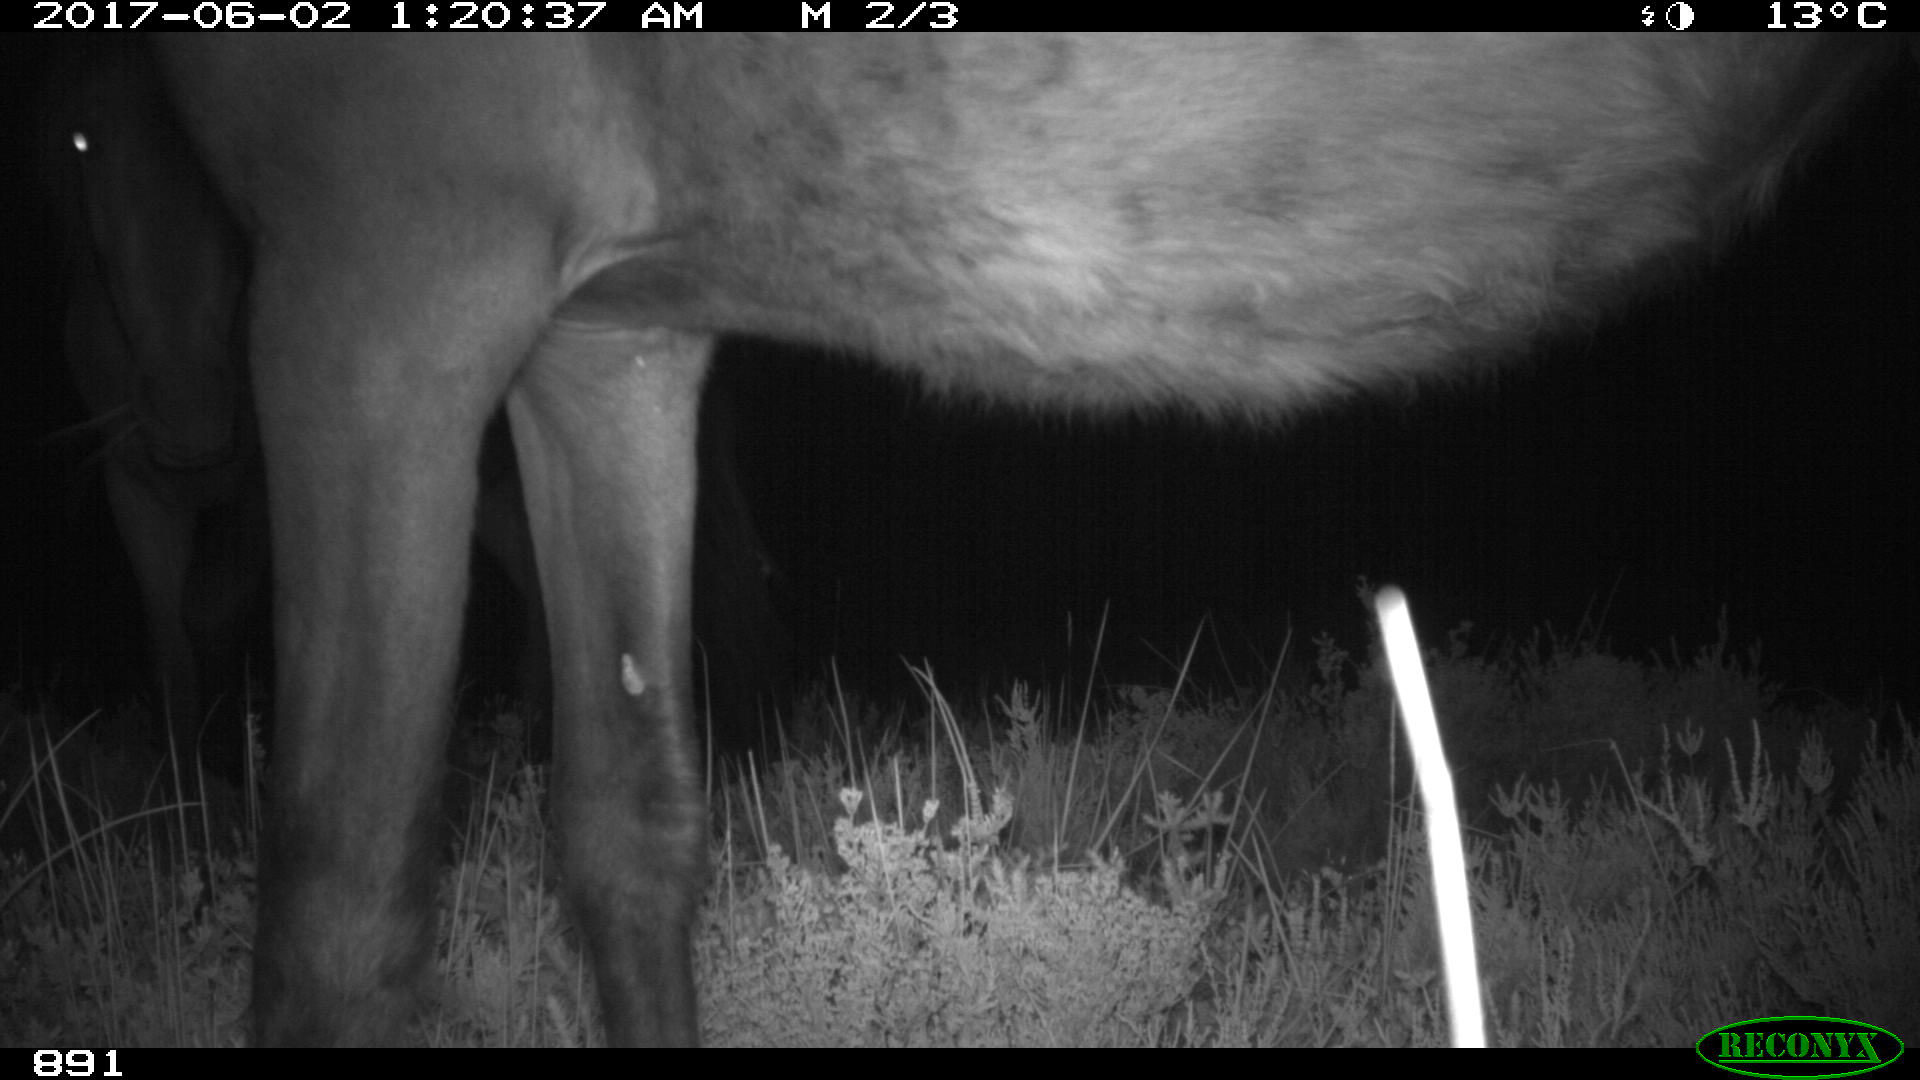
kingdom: Animalia
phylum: Chordata
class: Mammalia
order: Perissodactyla
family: Equidae
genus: Equus
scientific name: Equus caballus
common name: Horse
